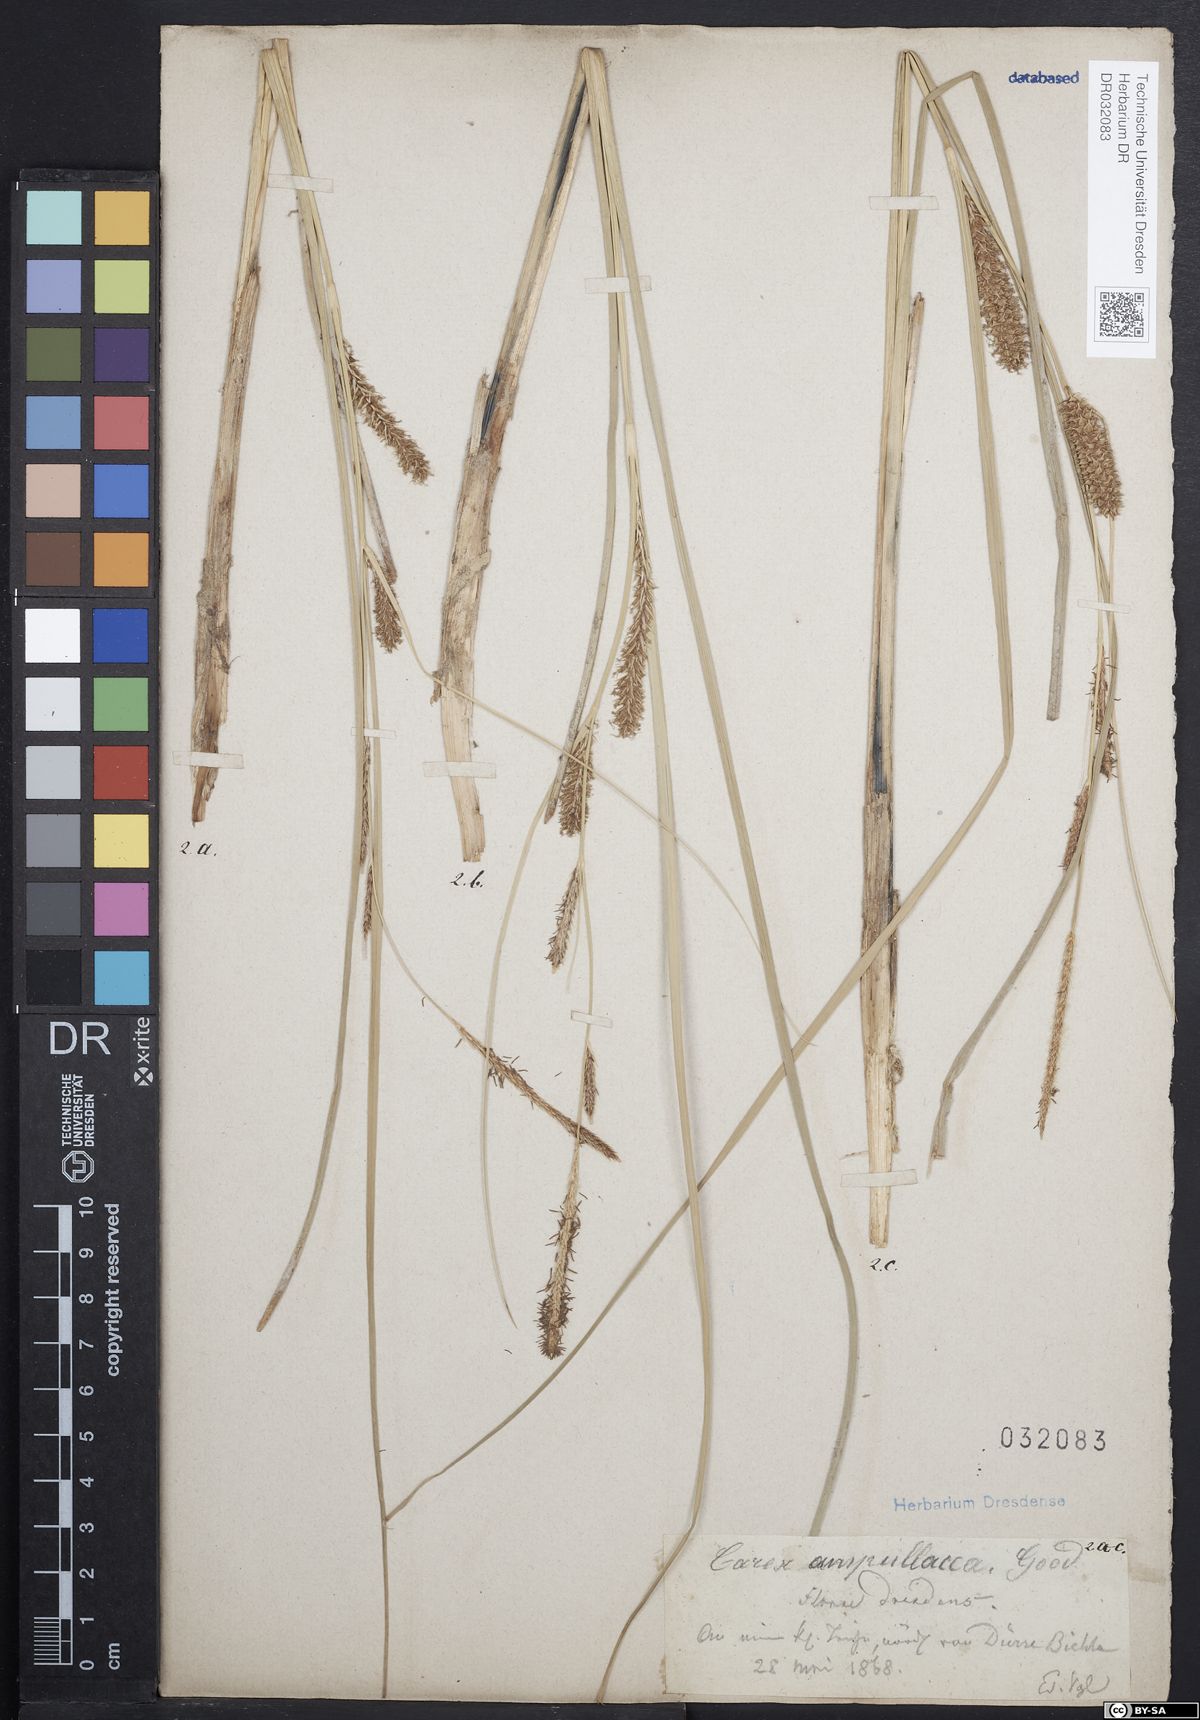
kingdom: Plantae
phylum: Tracheophyta
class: Liliopsida
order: Poales
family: Cyperaceae
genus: Carex
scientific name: Carex rostrata
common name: Bottle sedge
